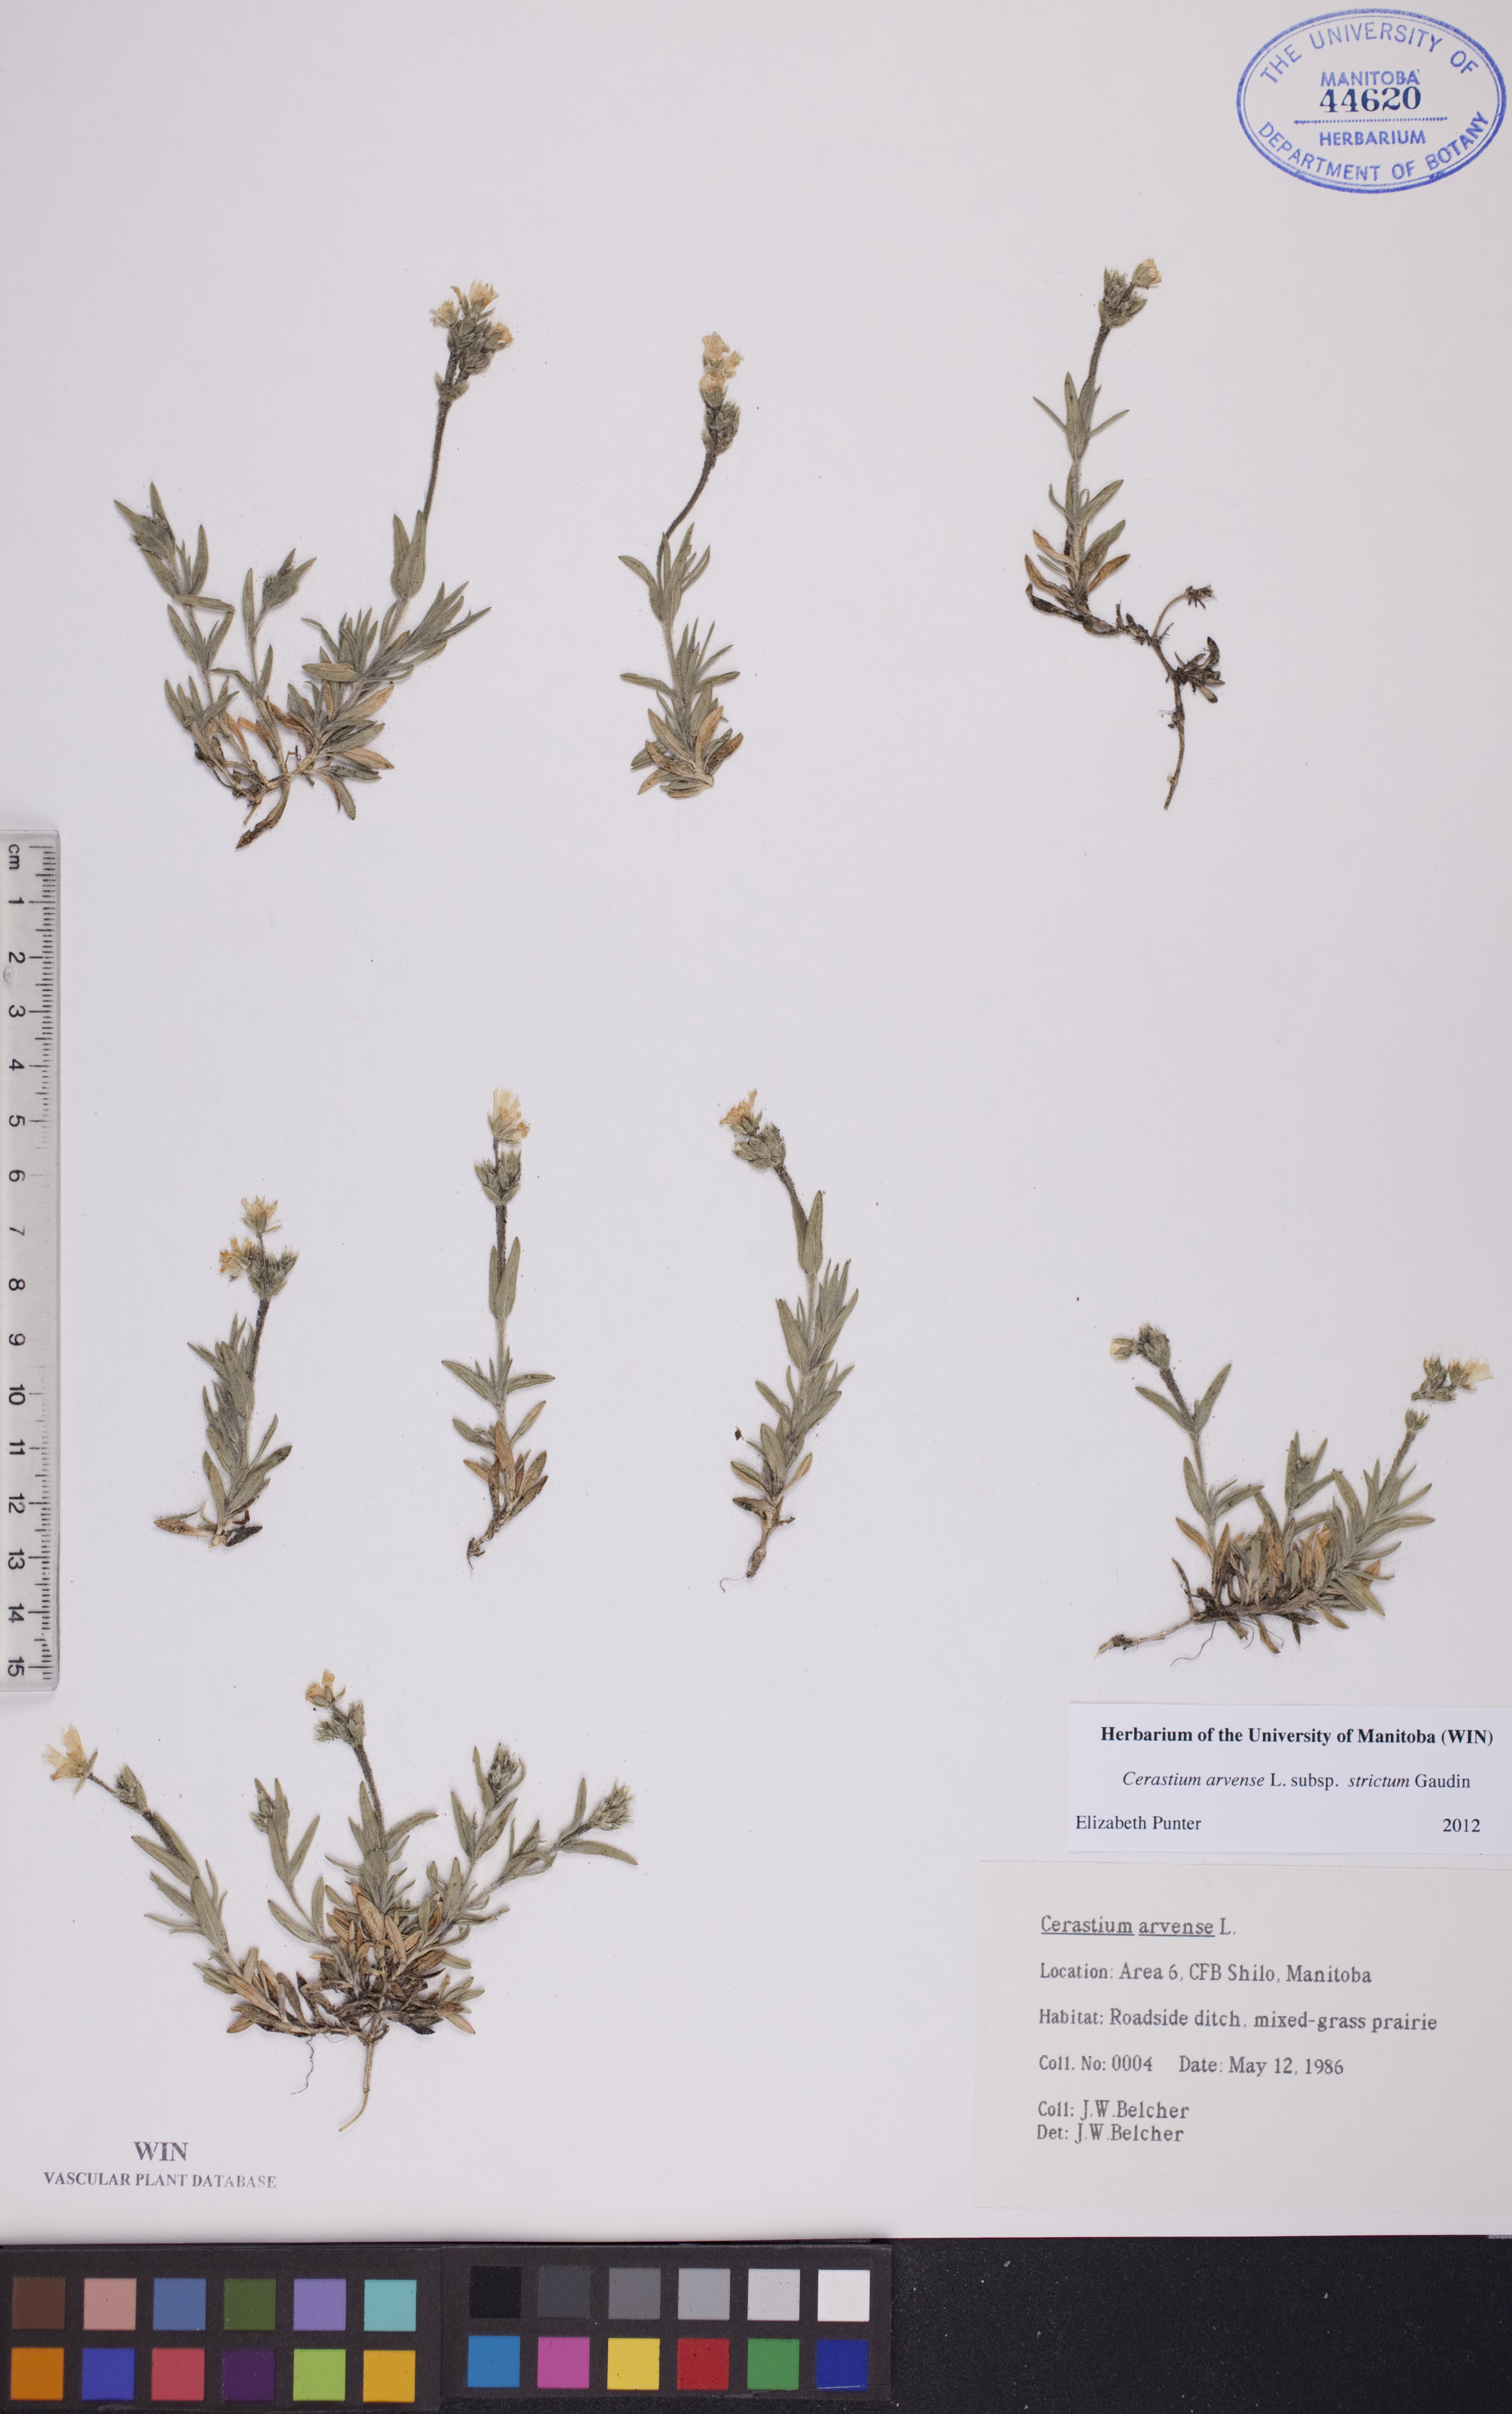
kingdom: Plantae
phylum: Tracheophyta
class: Magnoliopsida
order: Caryophyllales
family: Caryophyllaceae
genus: Cerastium
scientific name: Cerastium elongatum
